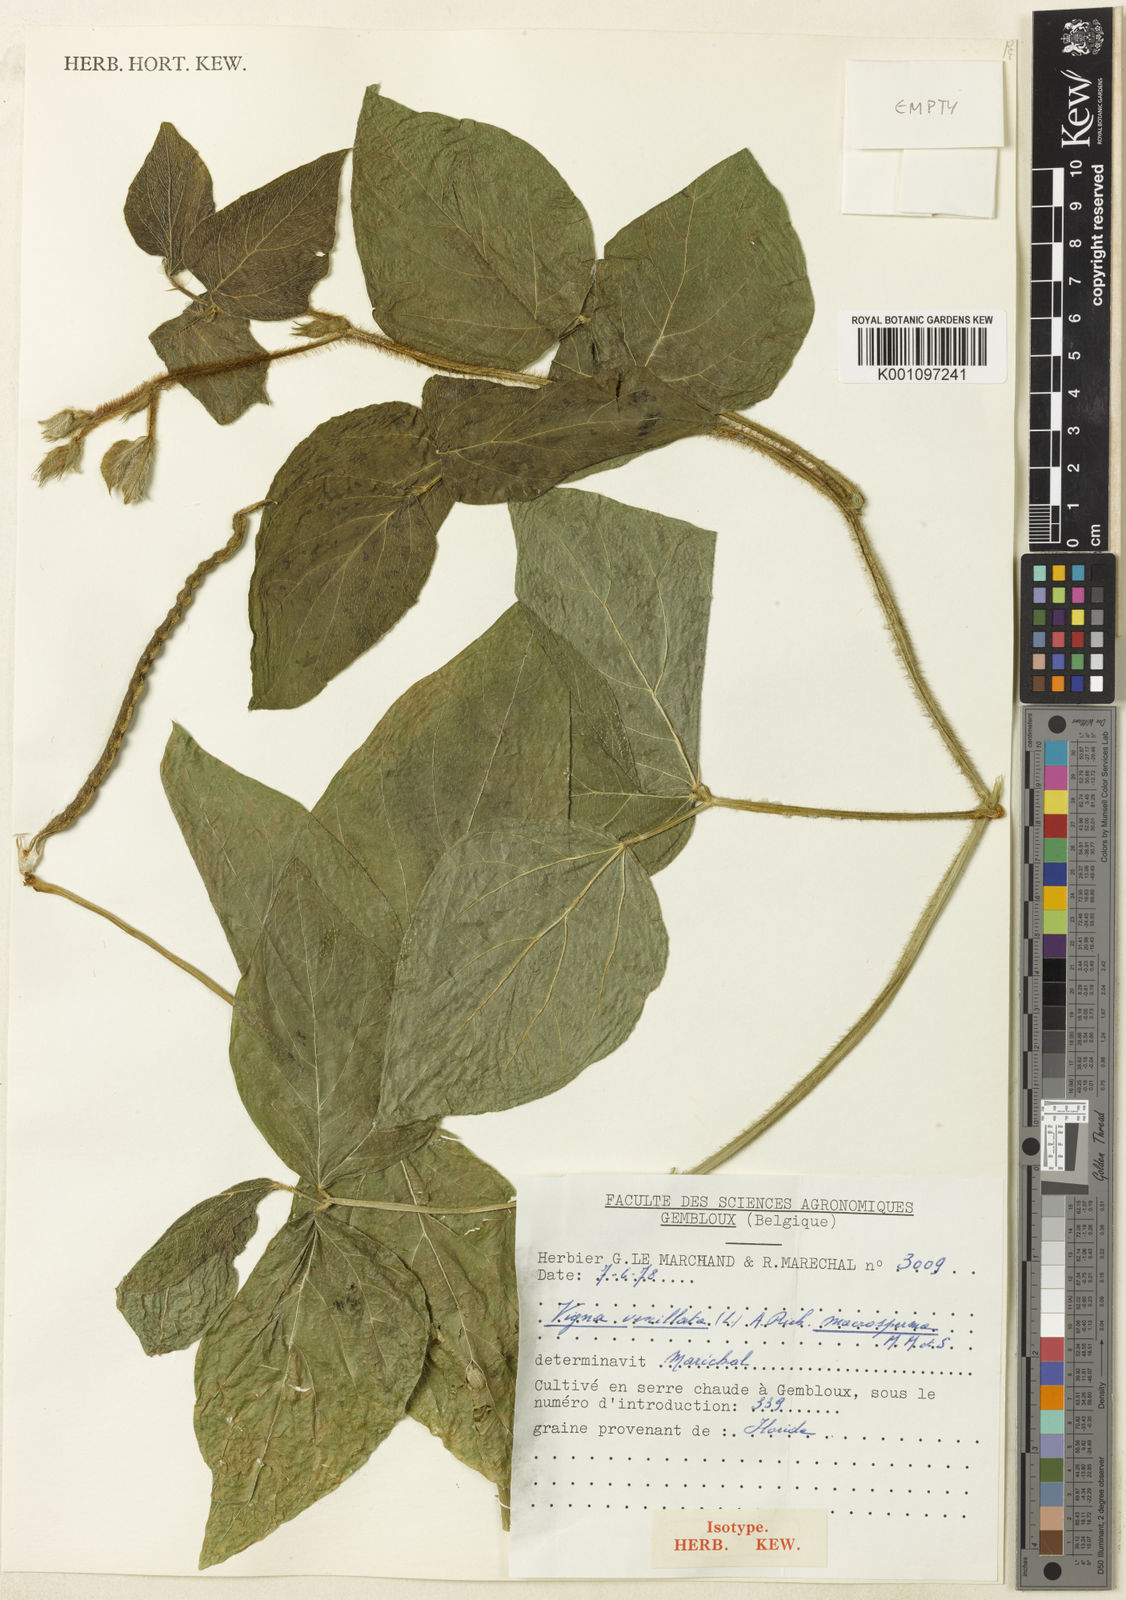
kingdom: Plantae
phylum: Tracheophyta
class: Magnoliopsida
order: Fabales
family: Fabaceae
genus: Vigna
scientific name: Vigna vexillata
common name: Zombi pea
